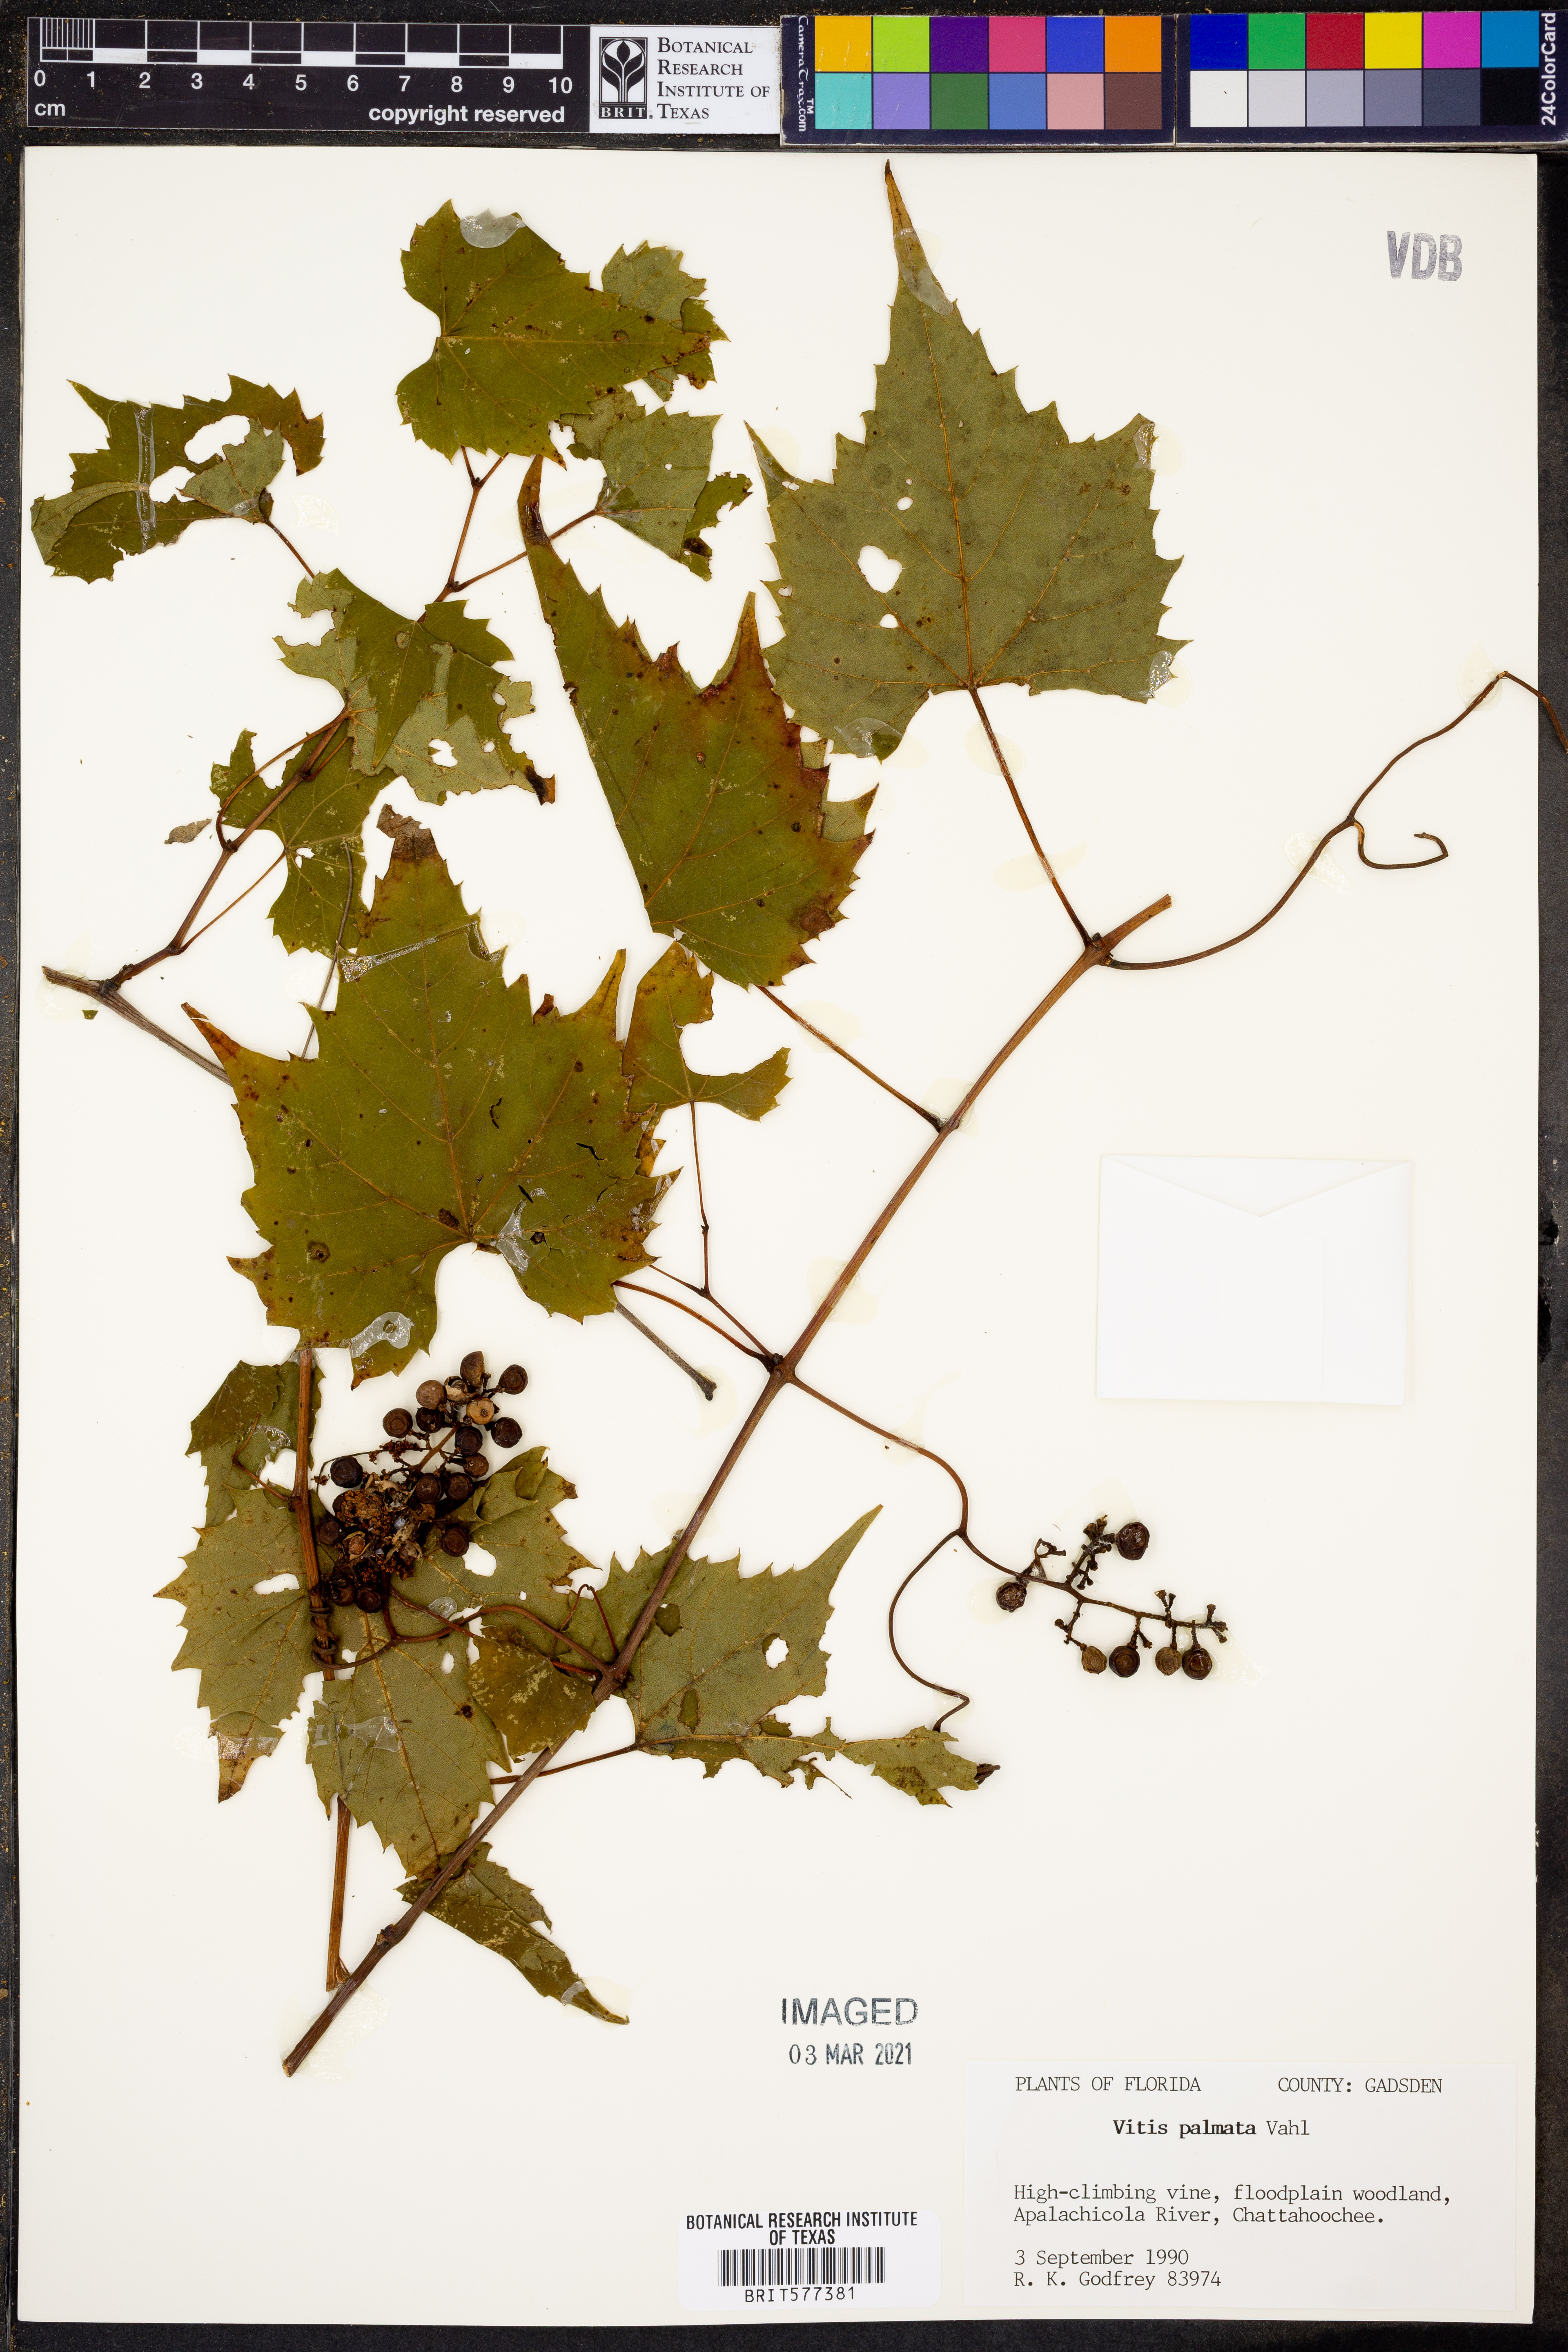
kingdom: Plantae
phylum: Tracheophyta
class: Magnoliopsida
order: Vitales
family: Vitaceae
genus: Vitis
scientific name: Vitis palmata
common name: Catbird grape
